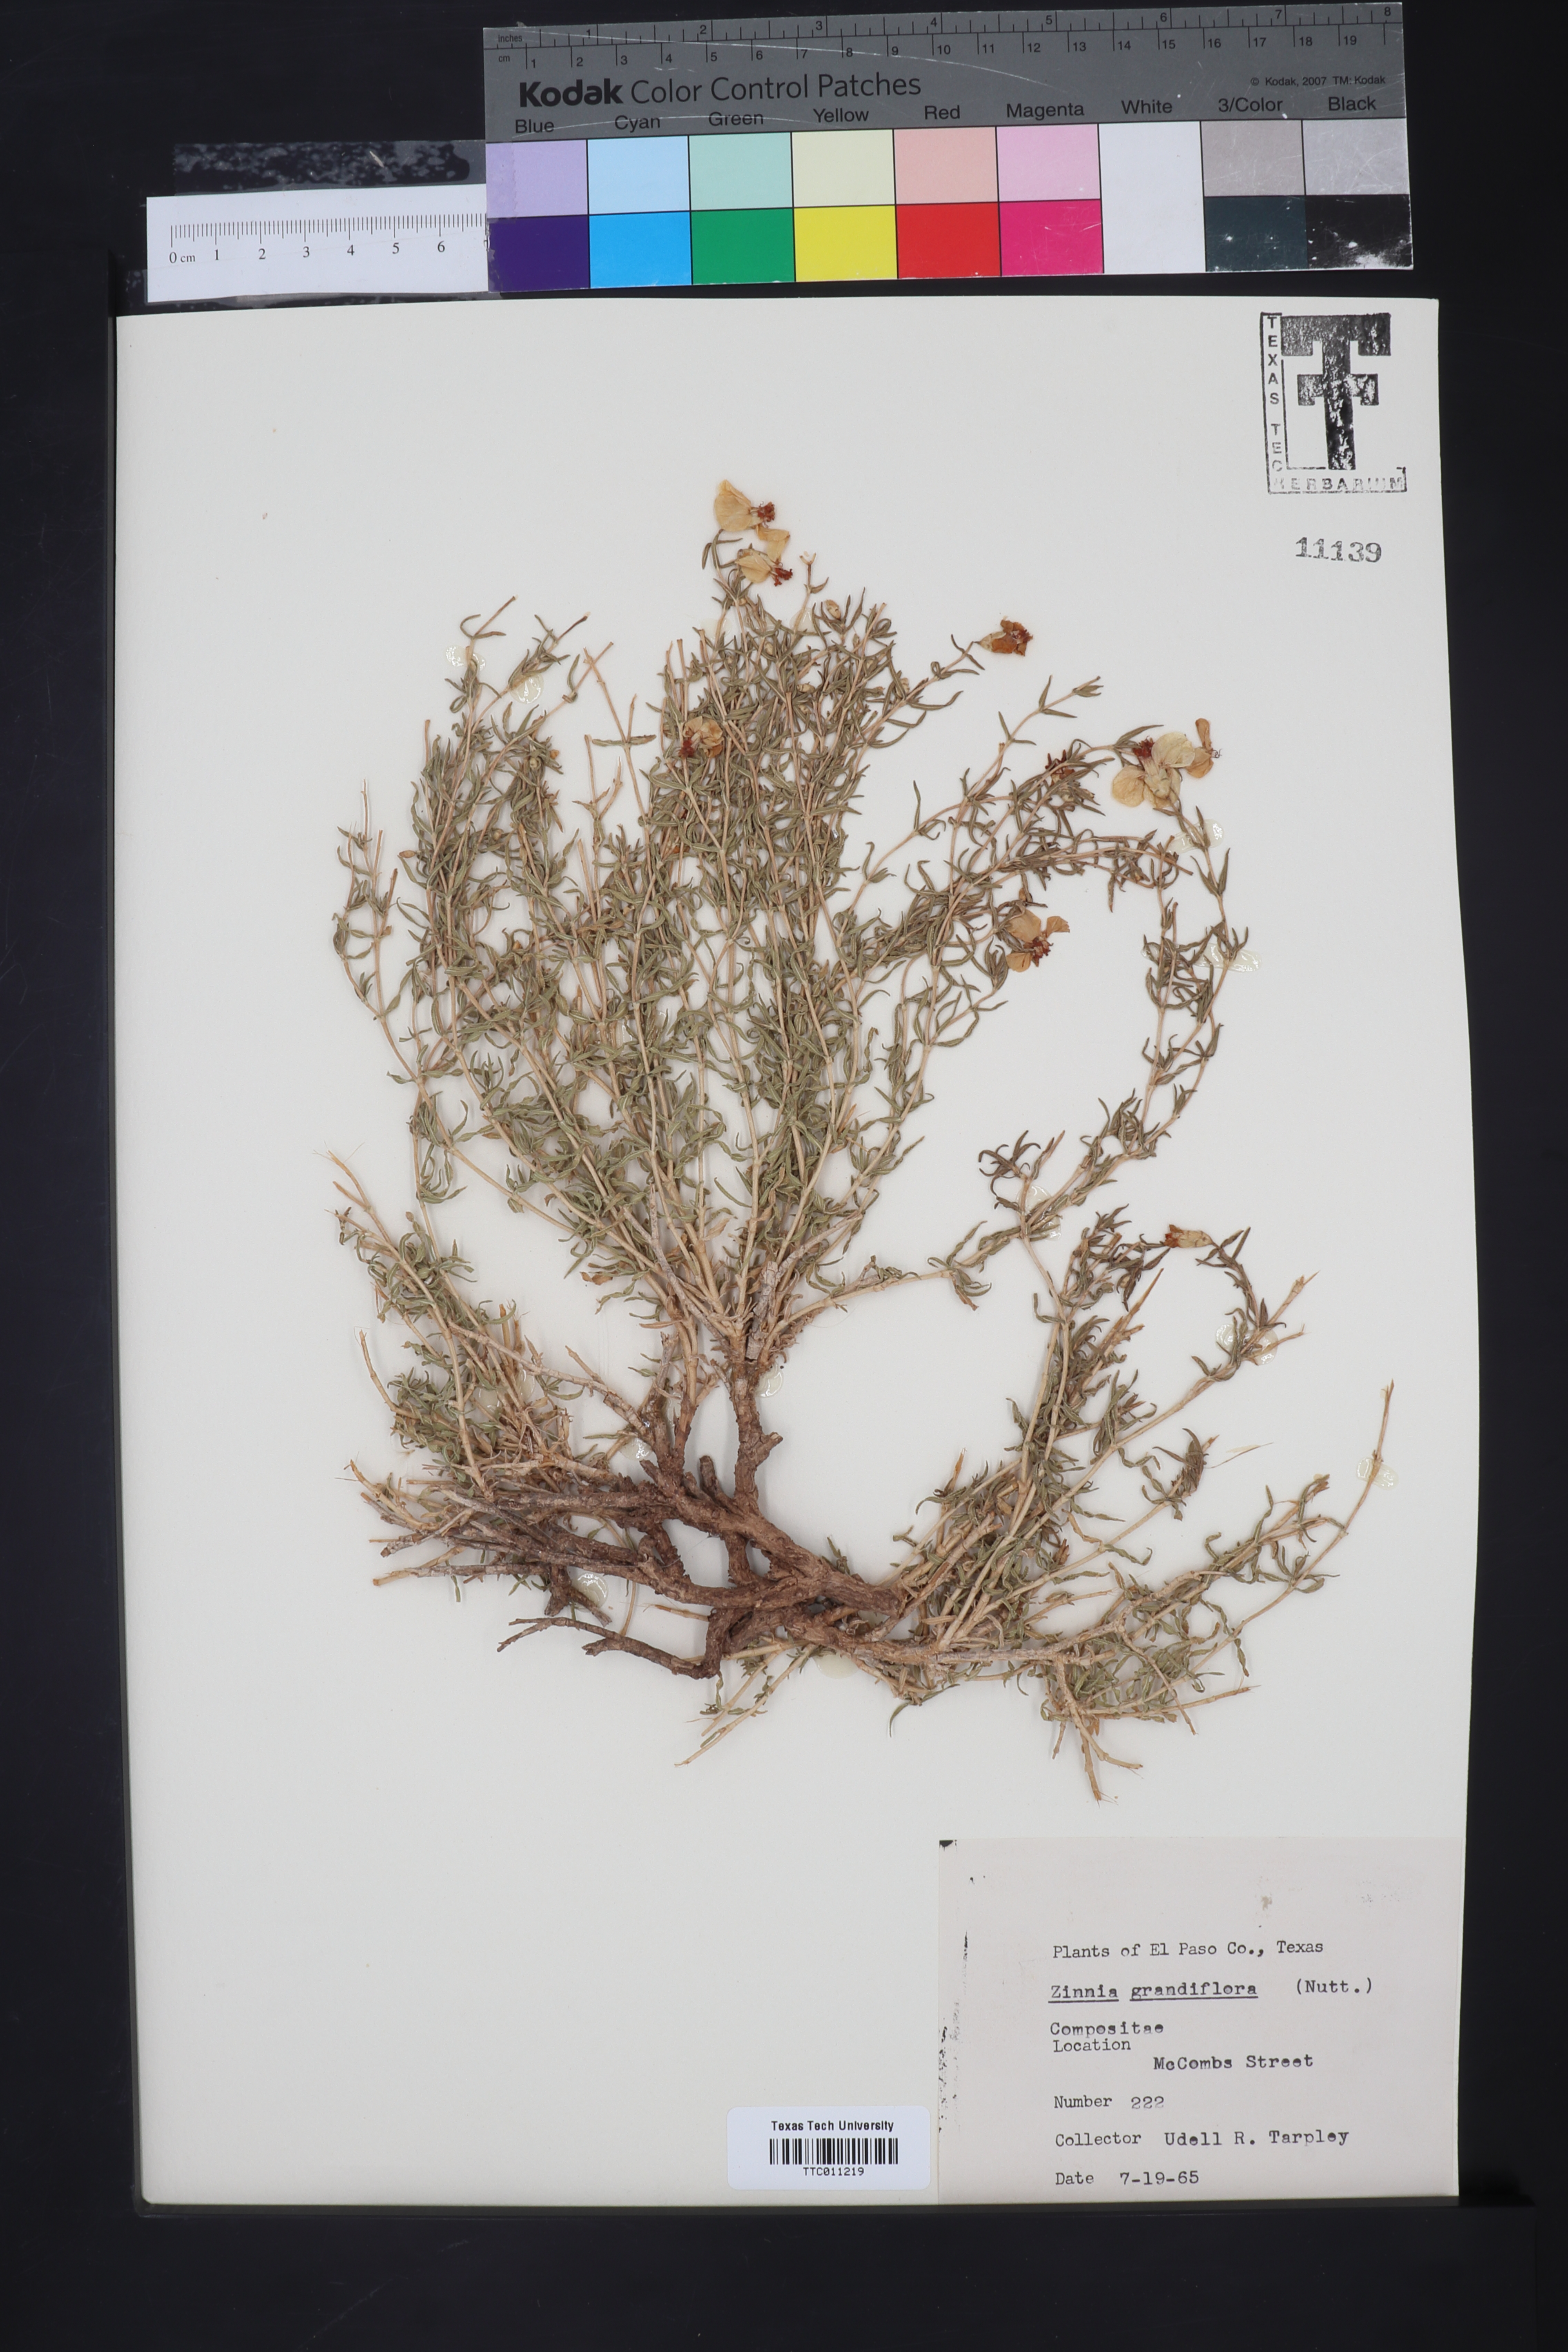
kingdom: Plantae
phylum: Tracheophyta
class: Magnoliopsida
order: Asterales
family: Asteraceae
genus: Zinnia
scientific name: Zinnia grandiflora
